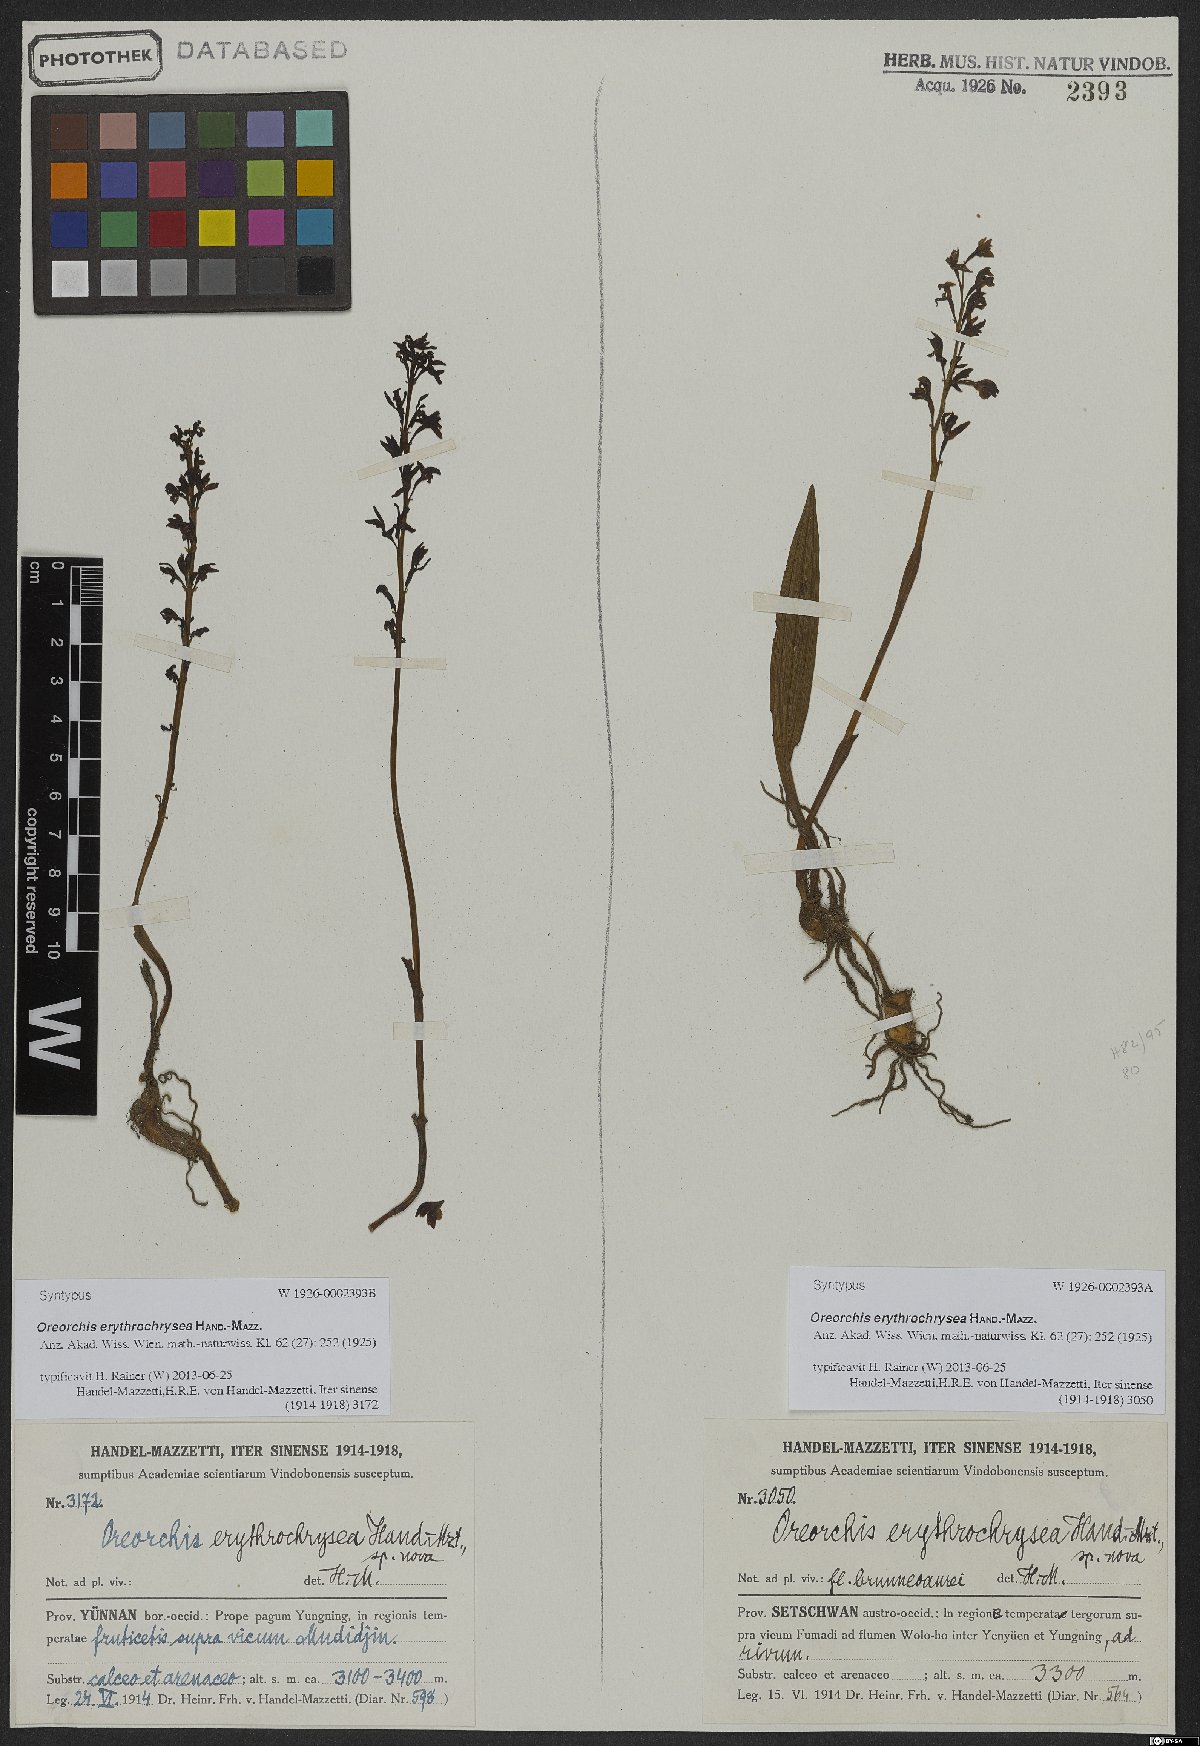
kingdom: Plantae
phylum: Tracheophyta
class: Liliopsida
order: Asparagales
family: Orchidaceae
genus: Oreorchis
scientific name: Oreorchis erythrochrysea
